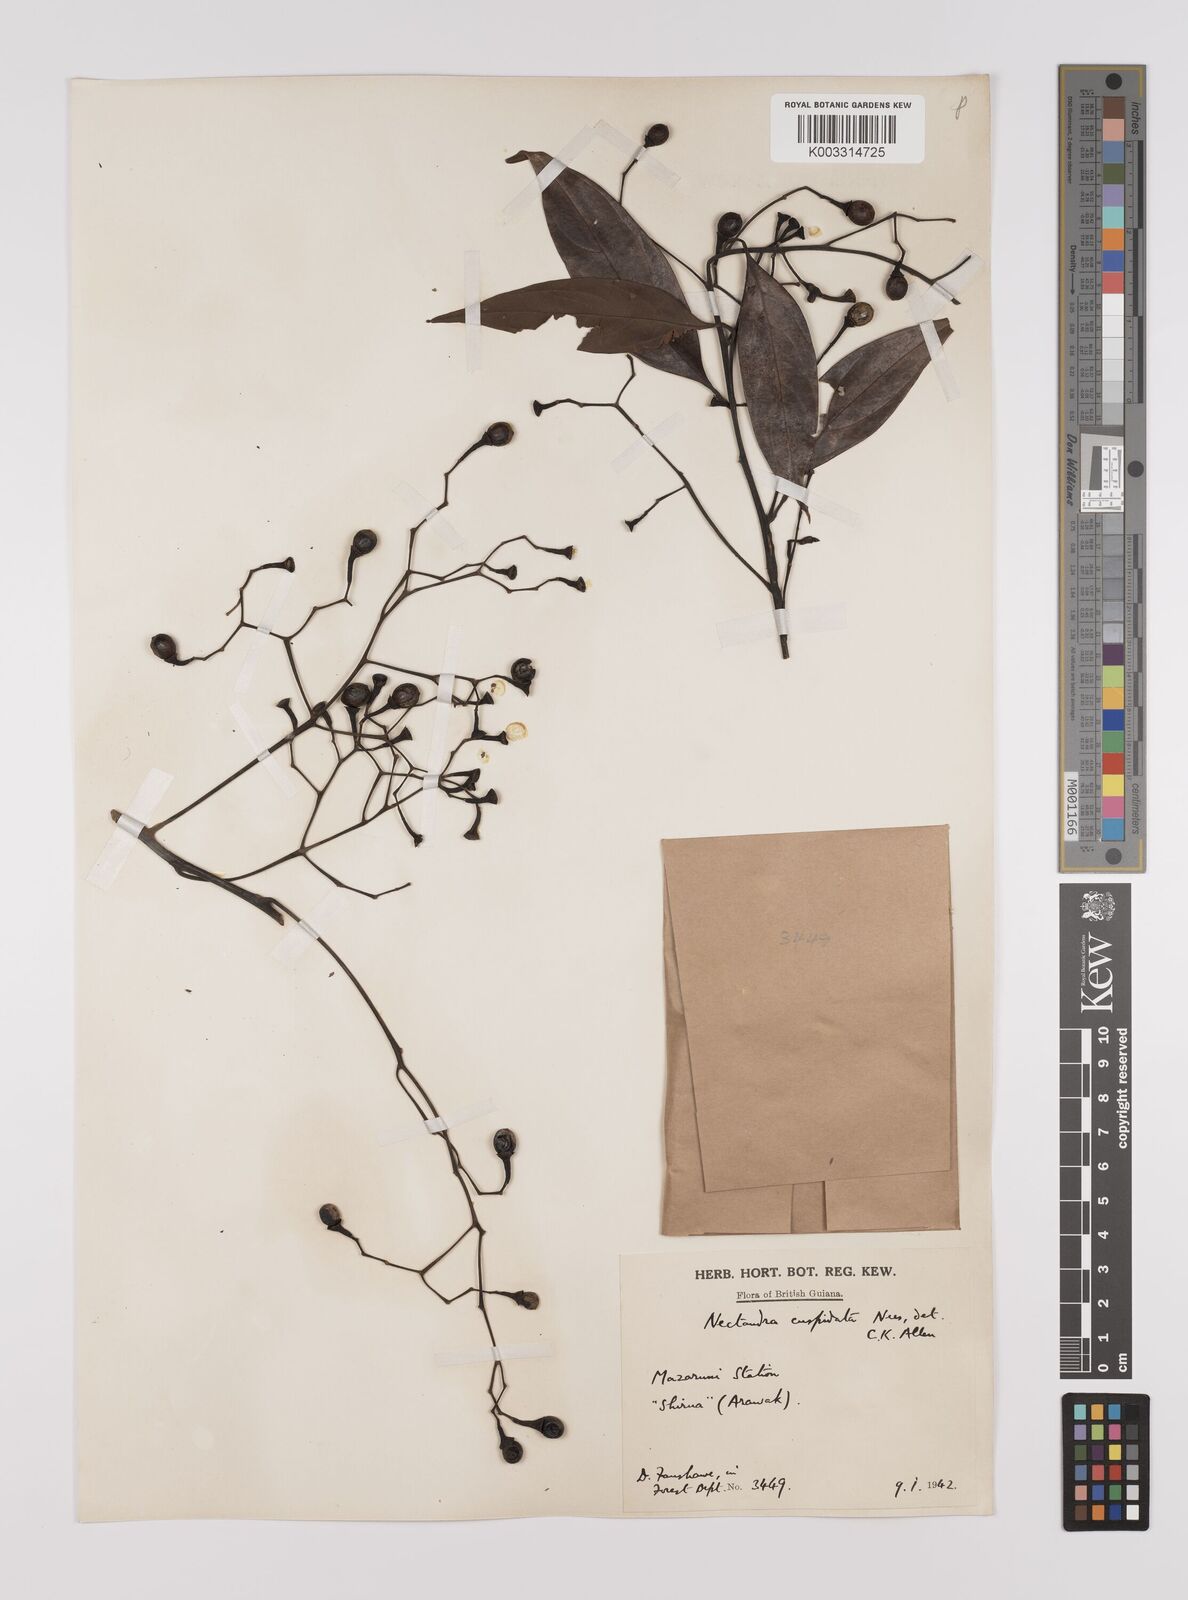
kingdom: Plantae
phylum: Tracheophyta
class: Magnoliopsida
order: Laurales
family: Lauraceae
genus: Nectandra
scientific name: Nectandra cuspidata
